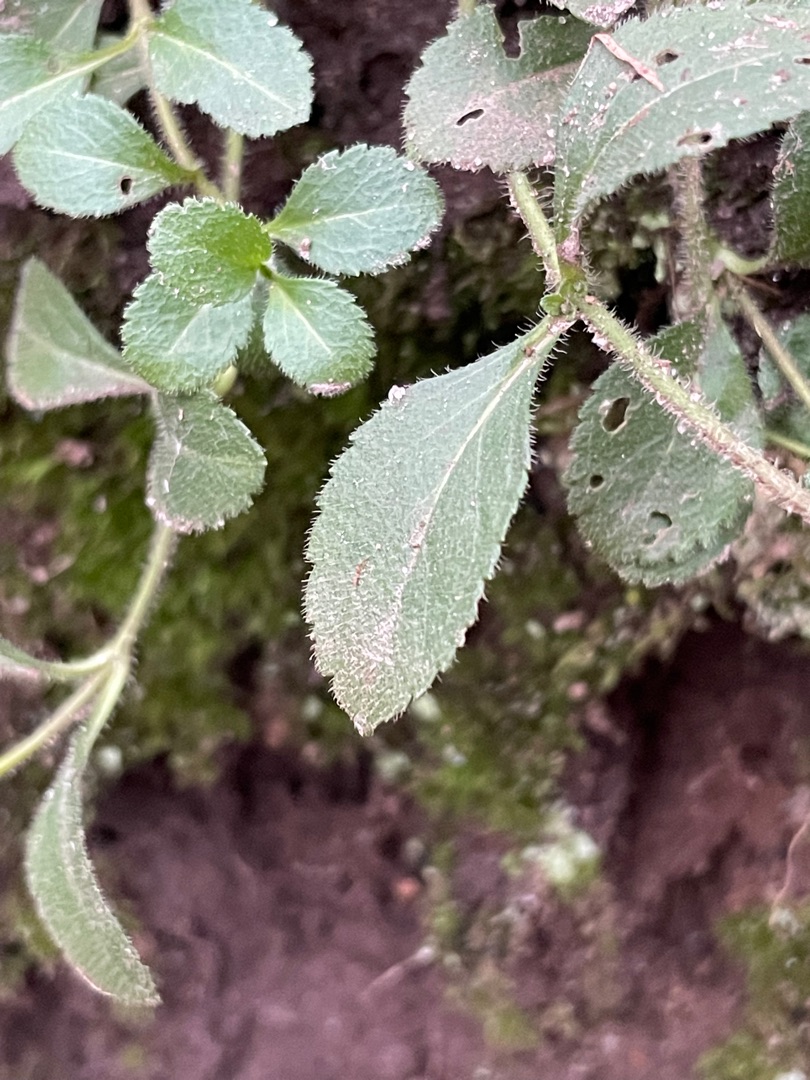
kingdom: Plantae
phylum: Tracheophyta
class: Magnoliopsida
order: Lamiales
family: Plantaginaceae
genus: Veronica
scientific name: Veronica officinalis
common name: Læge-ærenpris
